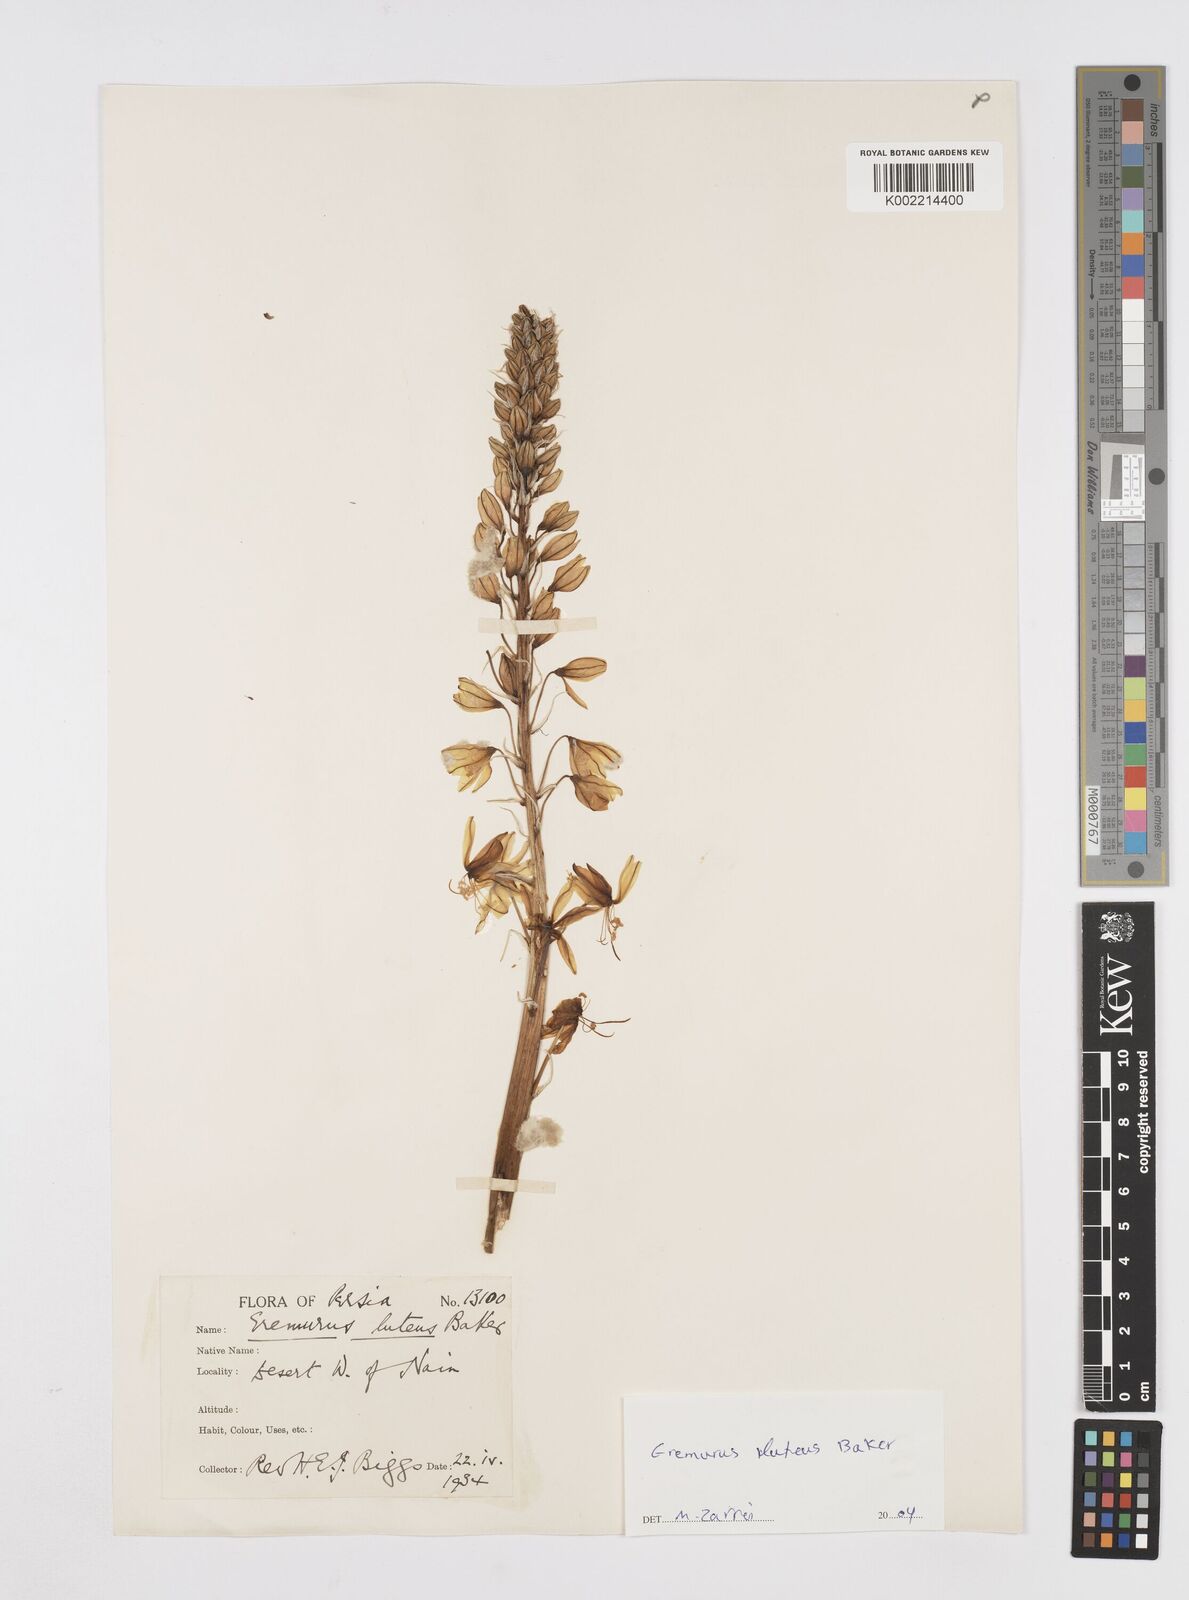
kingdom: Plantae
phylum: Tracheophyta
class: Liliopsida
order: Asparagales
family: Asphodelaceae
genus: Eremurus
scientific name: Eremurus luteus
